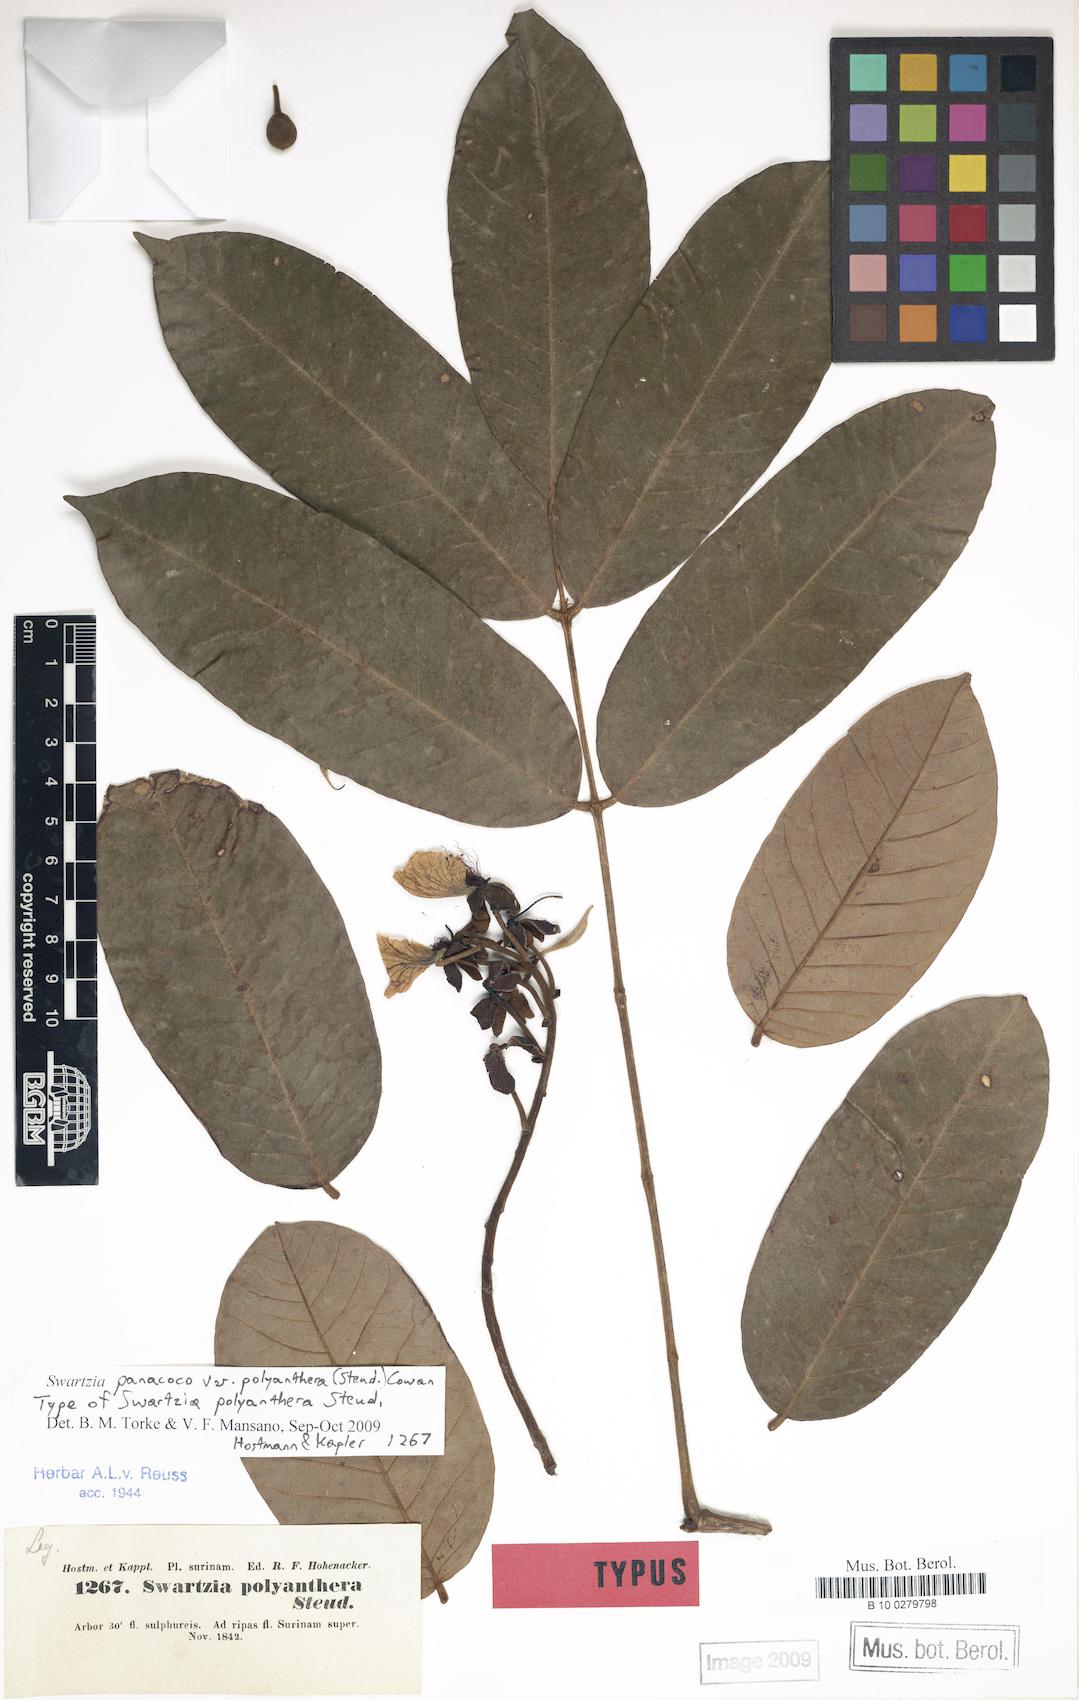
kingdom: Plantae
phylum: Tracheophyta
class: Magnoliopsida
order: Fabales
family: Fabaceae
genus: Swartzia
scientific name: Swartzia panacoco
